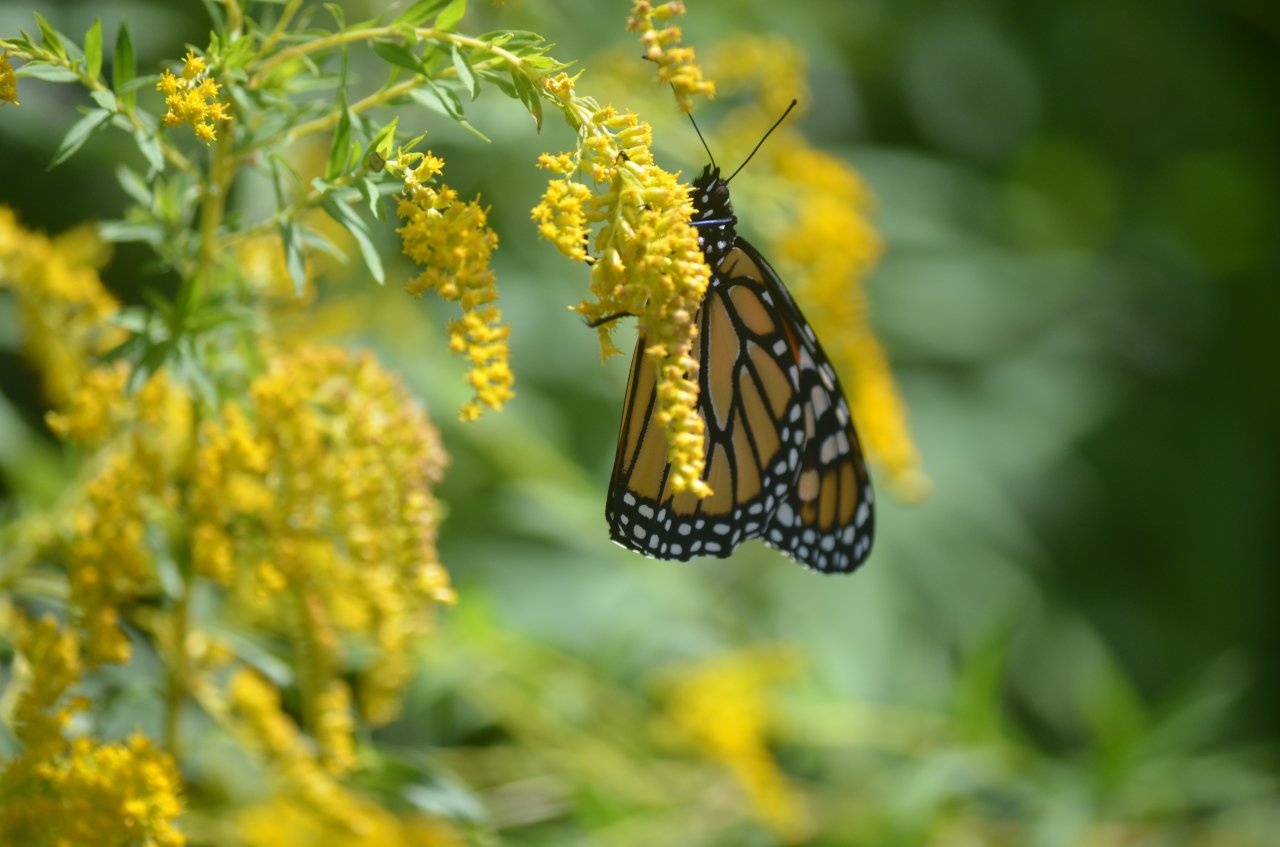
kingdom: Animalia
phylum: Arthropoda
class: Insecta
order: Lepidoptera
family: Nymphalidae
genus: Danaus
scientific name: Danaus plexippus
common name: Monarch
